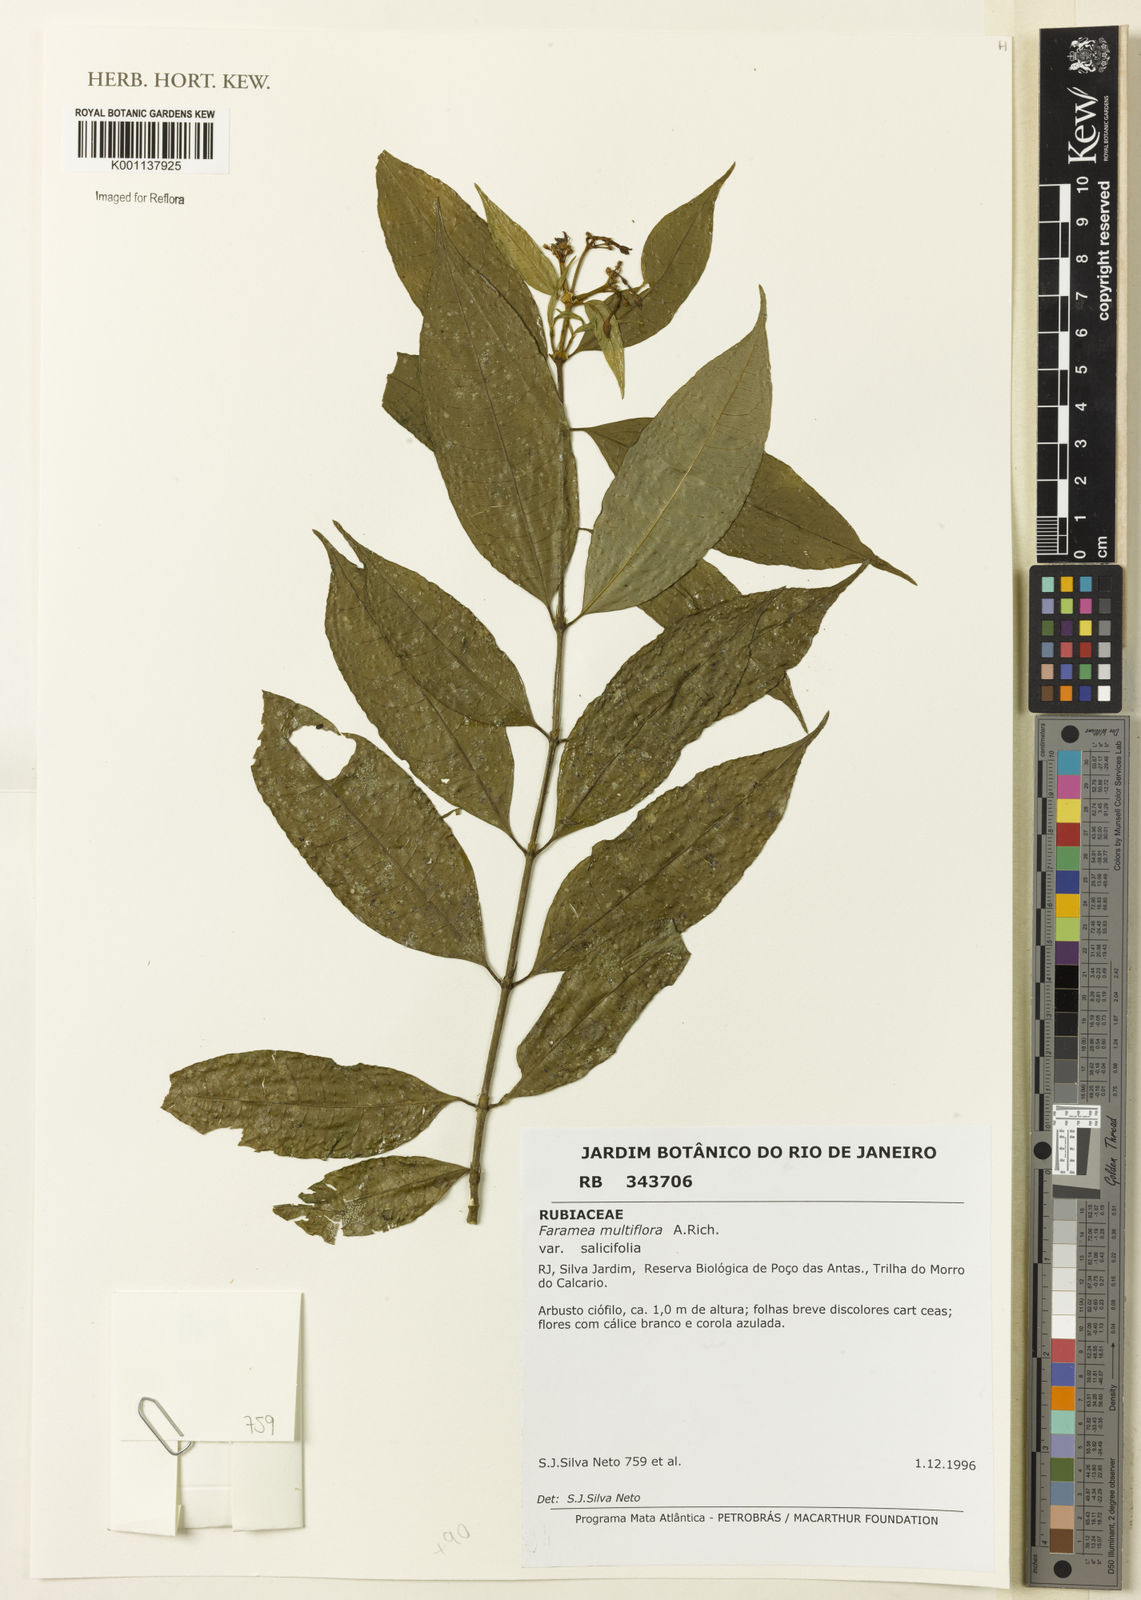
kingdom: Plantae
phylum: Tracheophyta
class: Magnoliopsida
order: Gentianales
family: Rubiaceae
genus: Faramea
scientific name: Faramea multiflora
